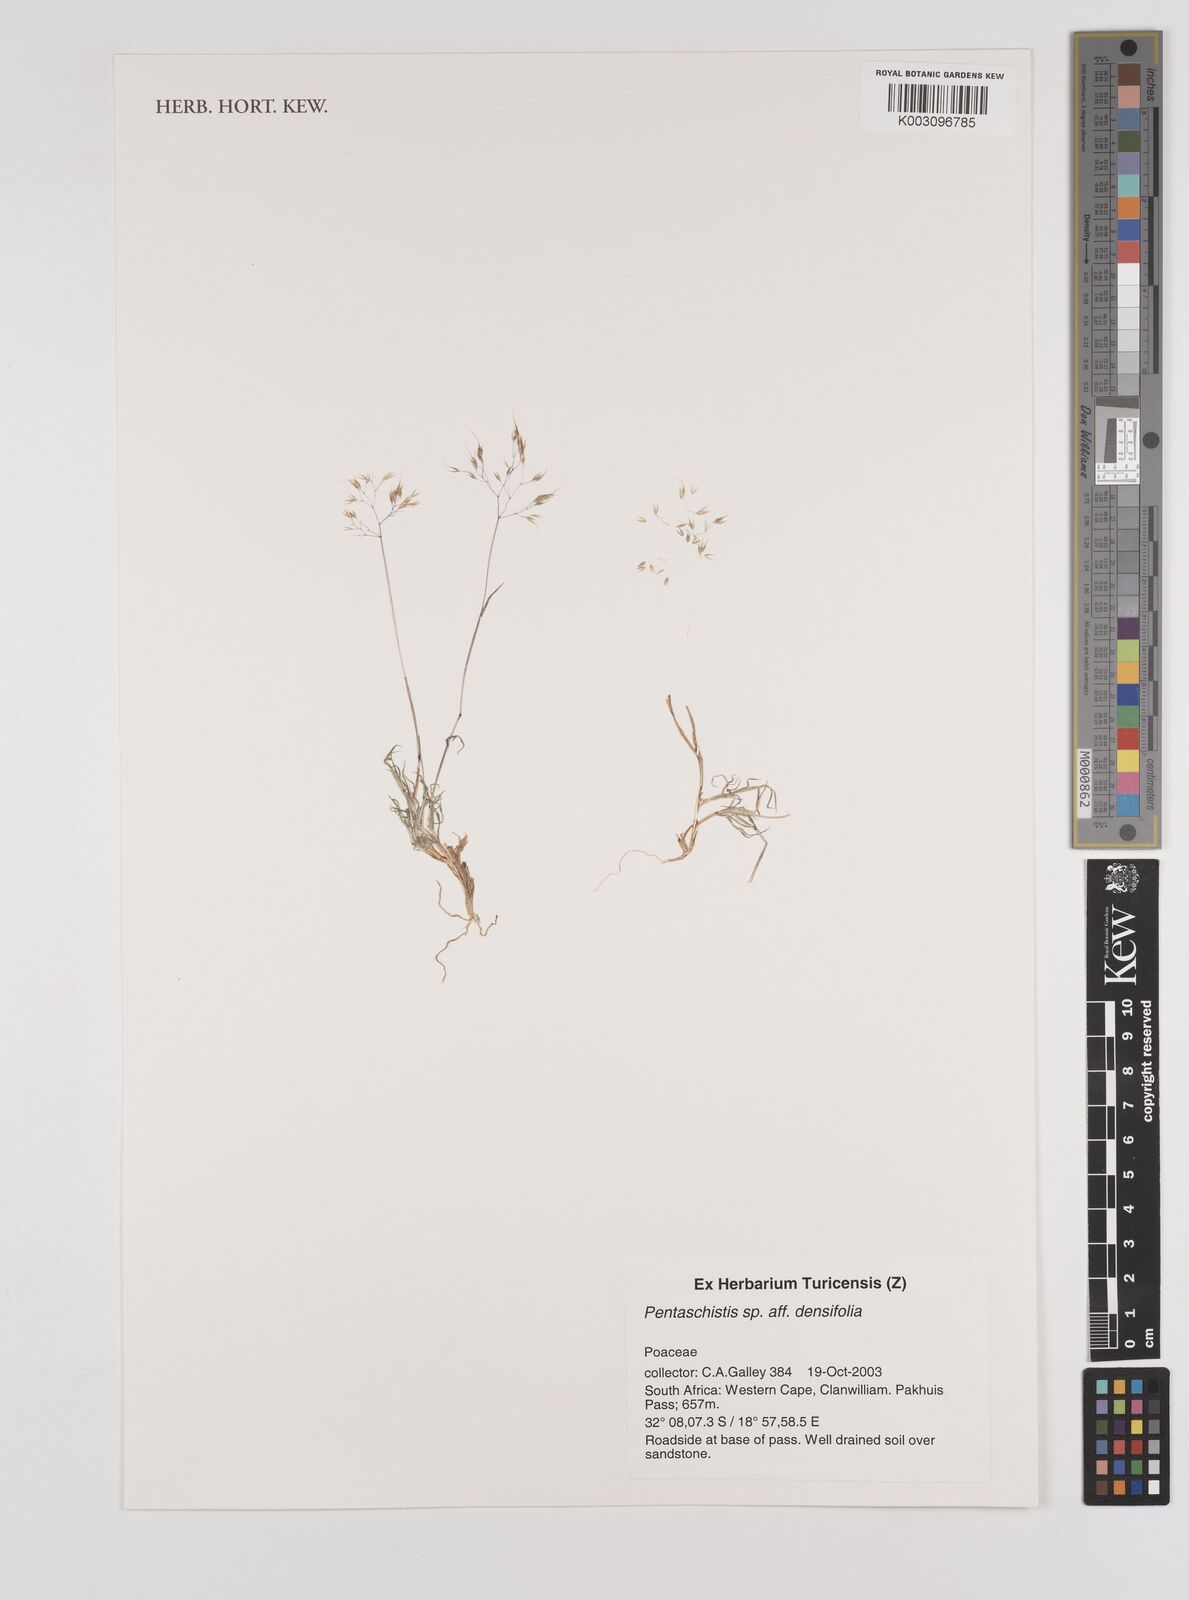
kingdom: Plantae
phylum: Tracheophyta
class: Liliopsida
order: Poales
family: Poaceae
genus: Pentameris
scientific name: Pentameris densifolia
